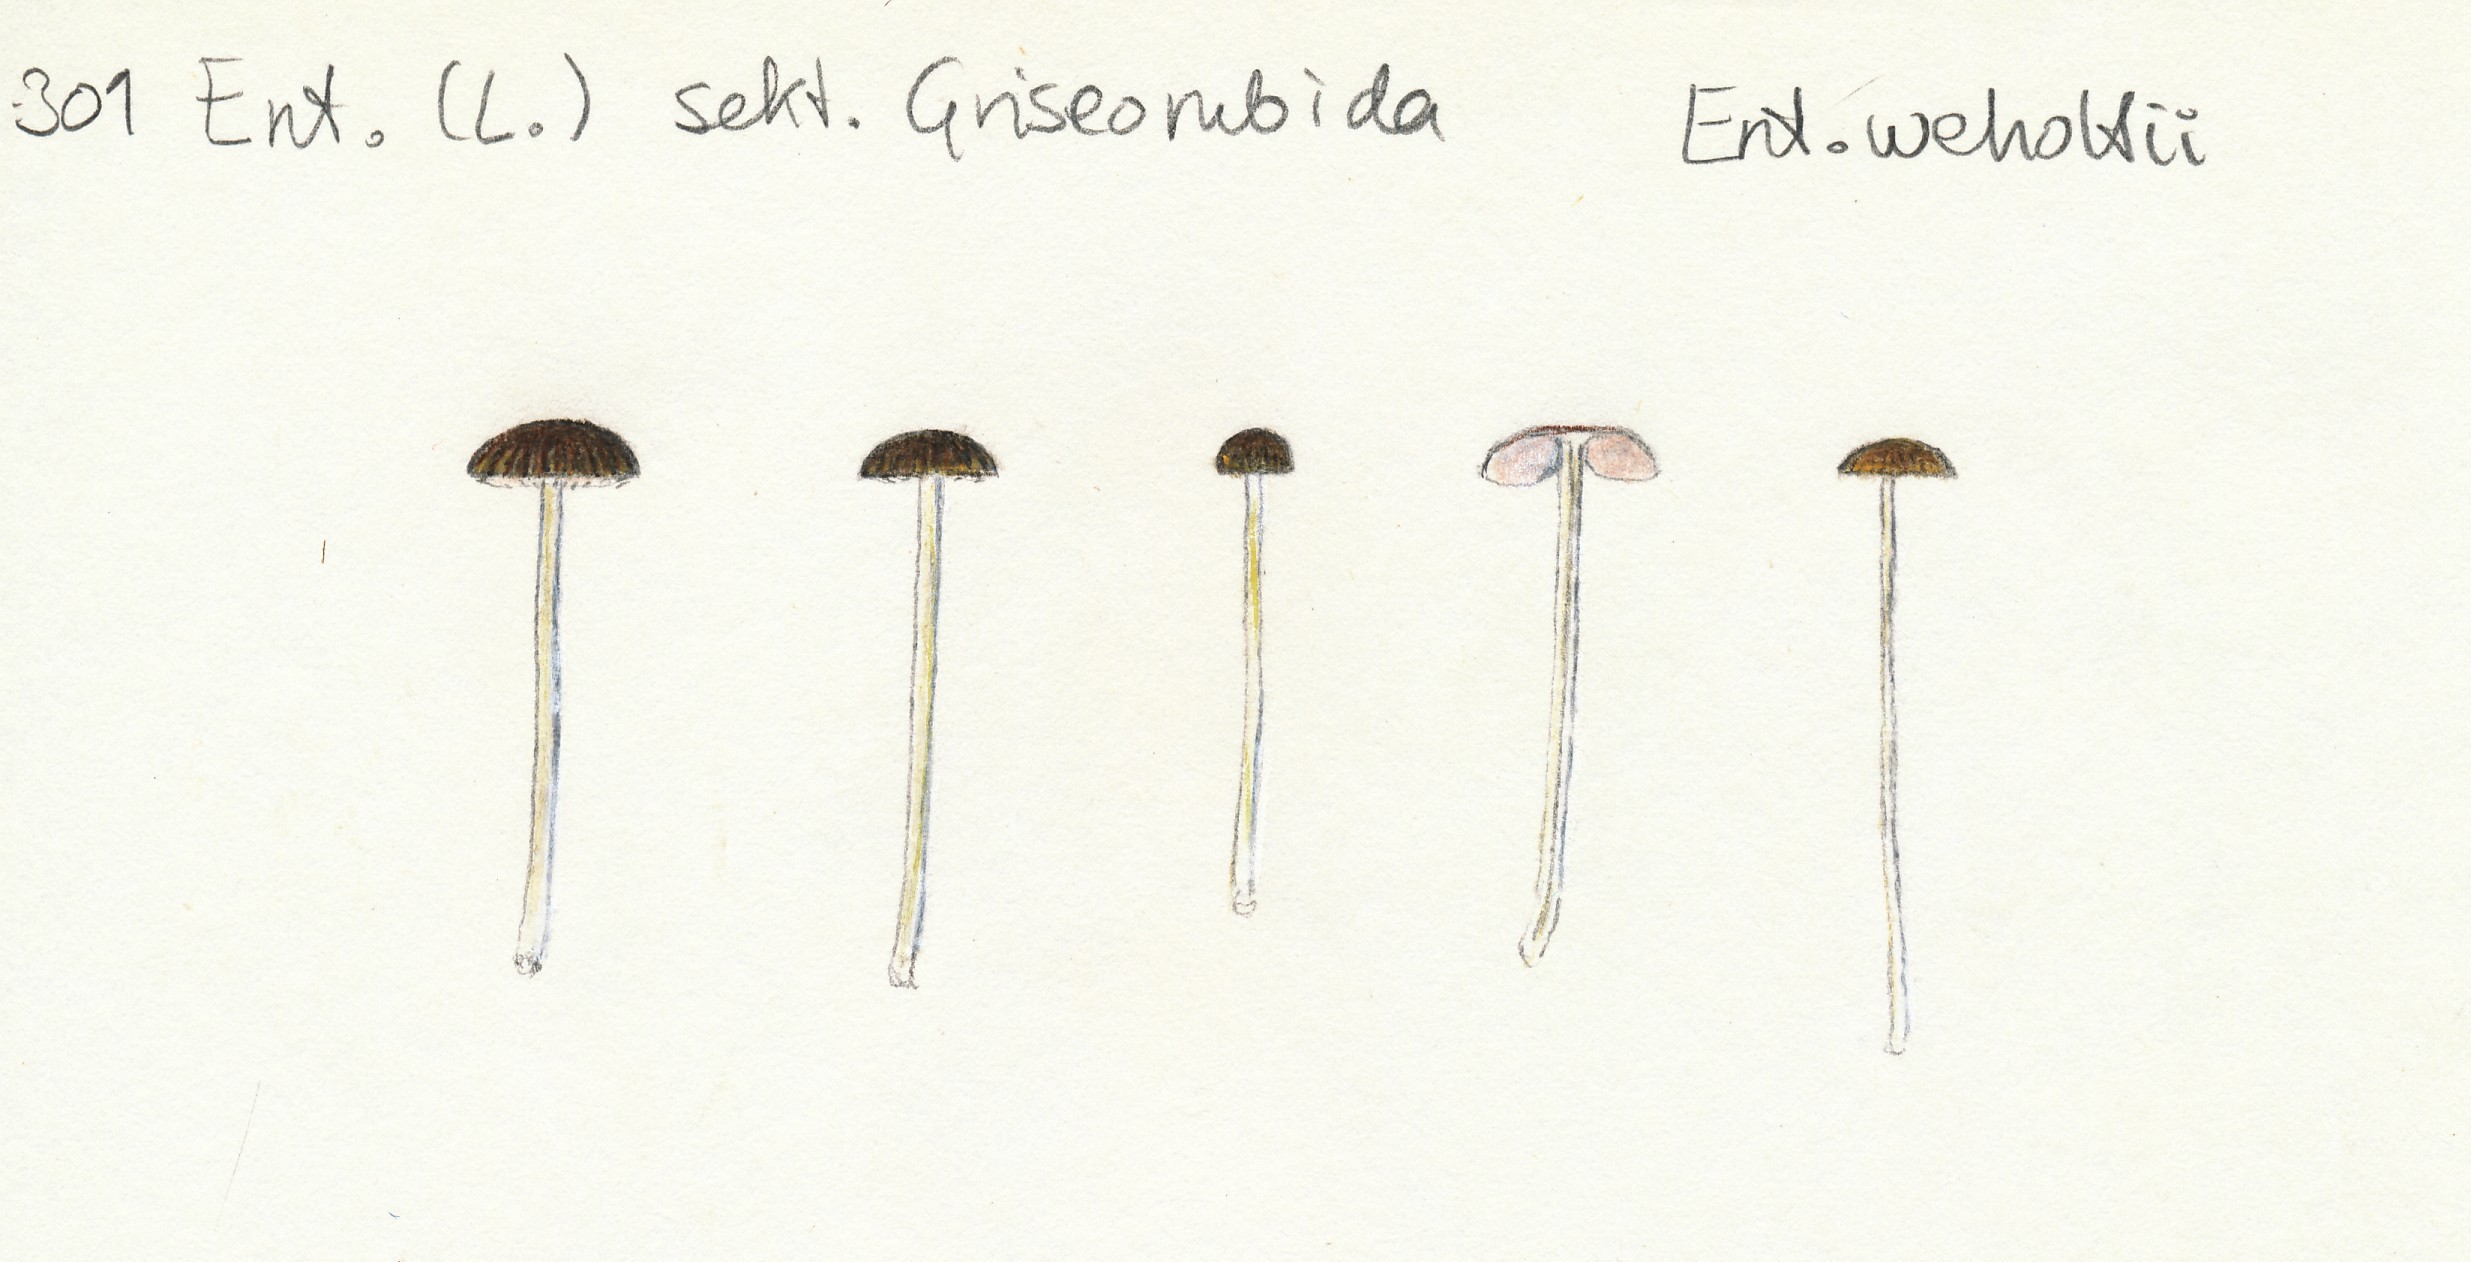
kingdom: Fungi
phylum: Basidiomycota
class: Agaricomycetes
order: Agaricales
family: Entolomataceae
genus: Entoloma
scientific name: Entoloma olivaceotinctum
